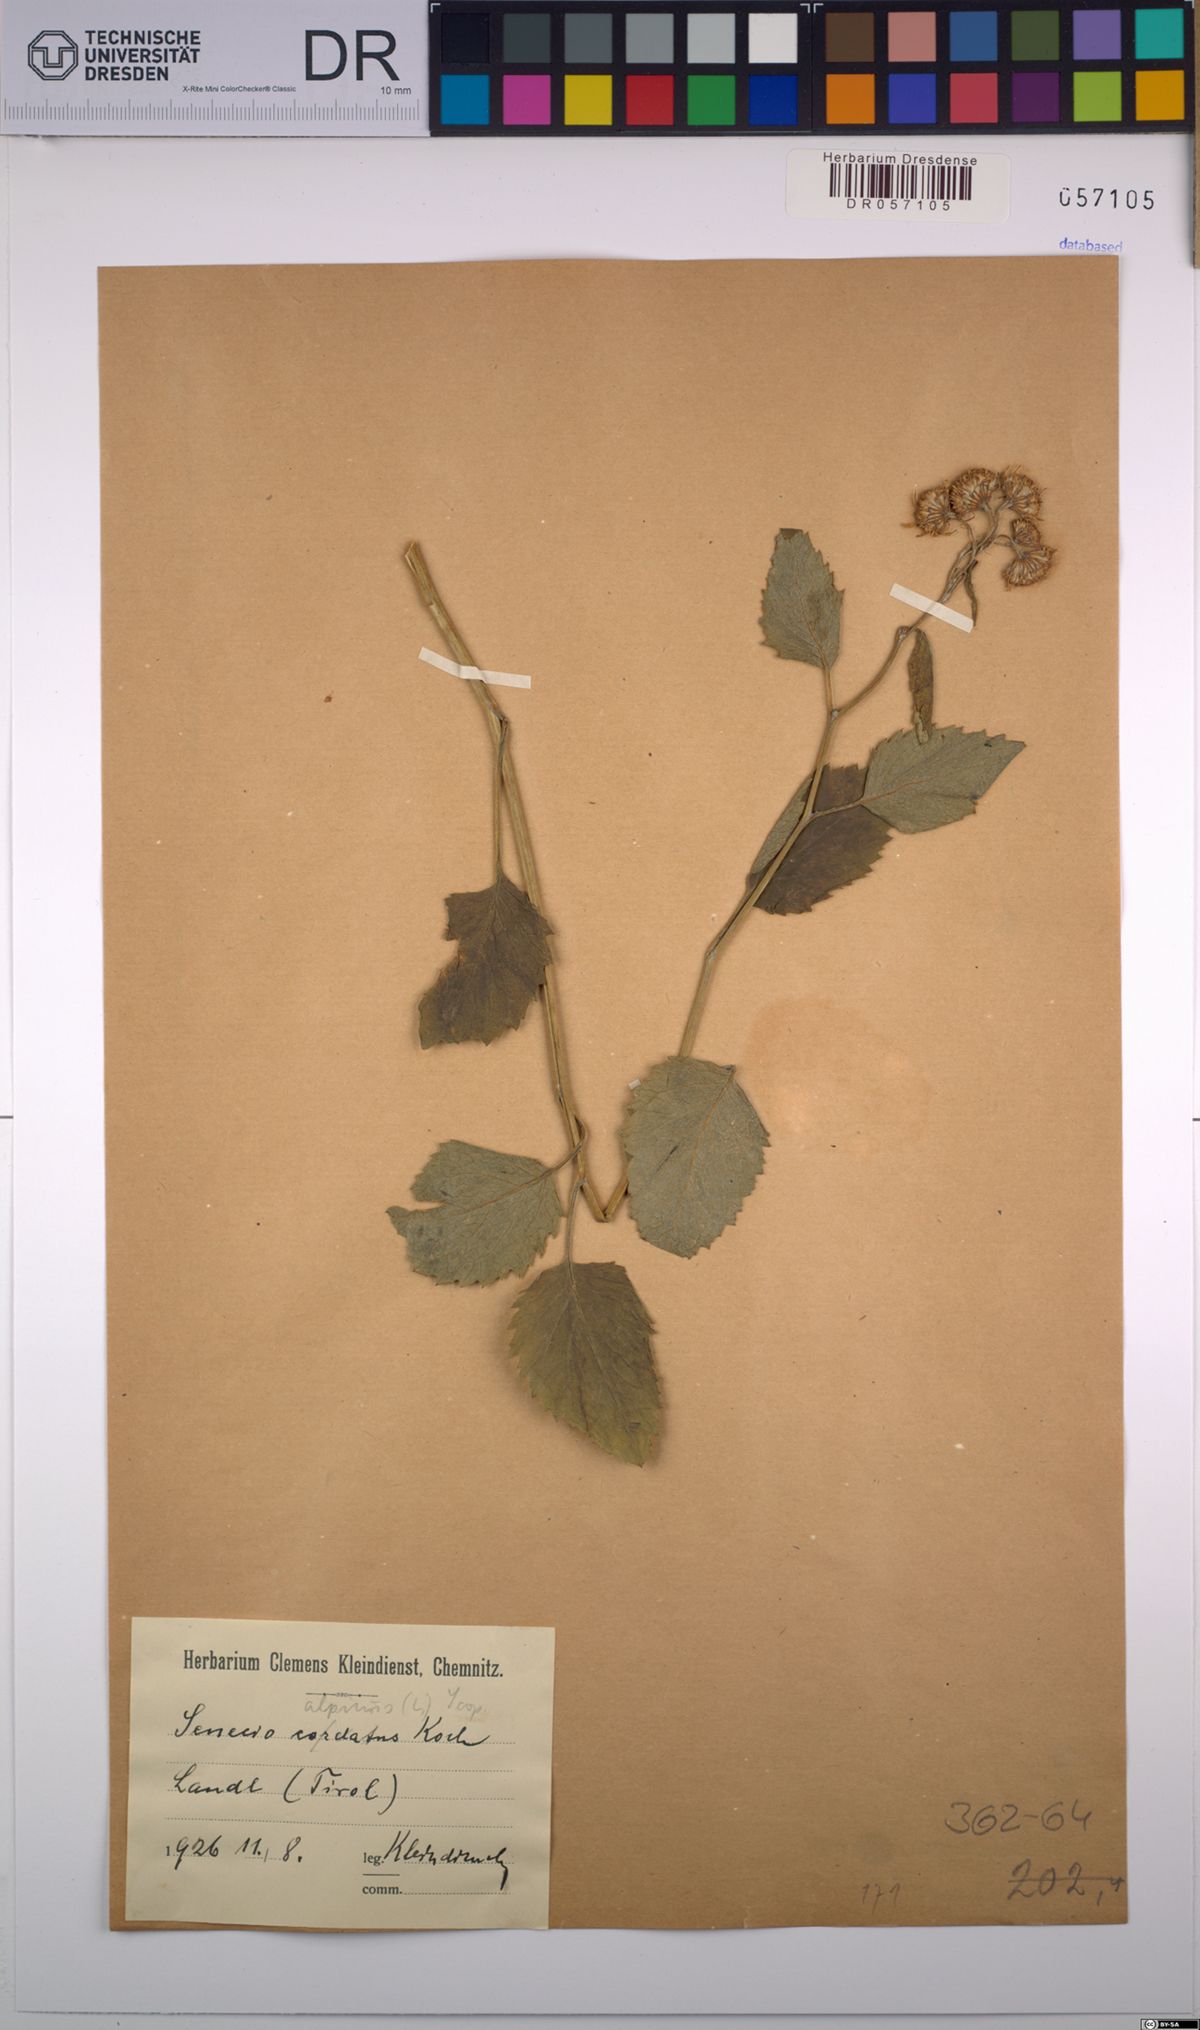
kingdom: Plantae
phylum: Tracheophyta
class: Magnoliopsida
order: Asterales
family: Asteraceae
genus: Jacobaea
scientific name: Jacobaea alpina
